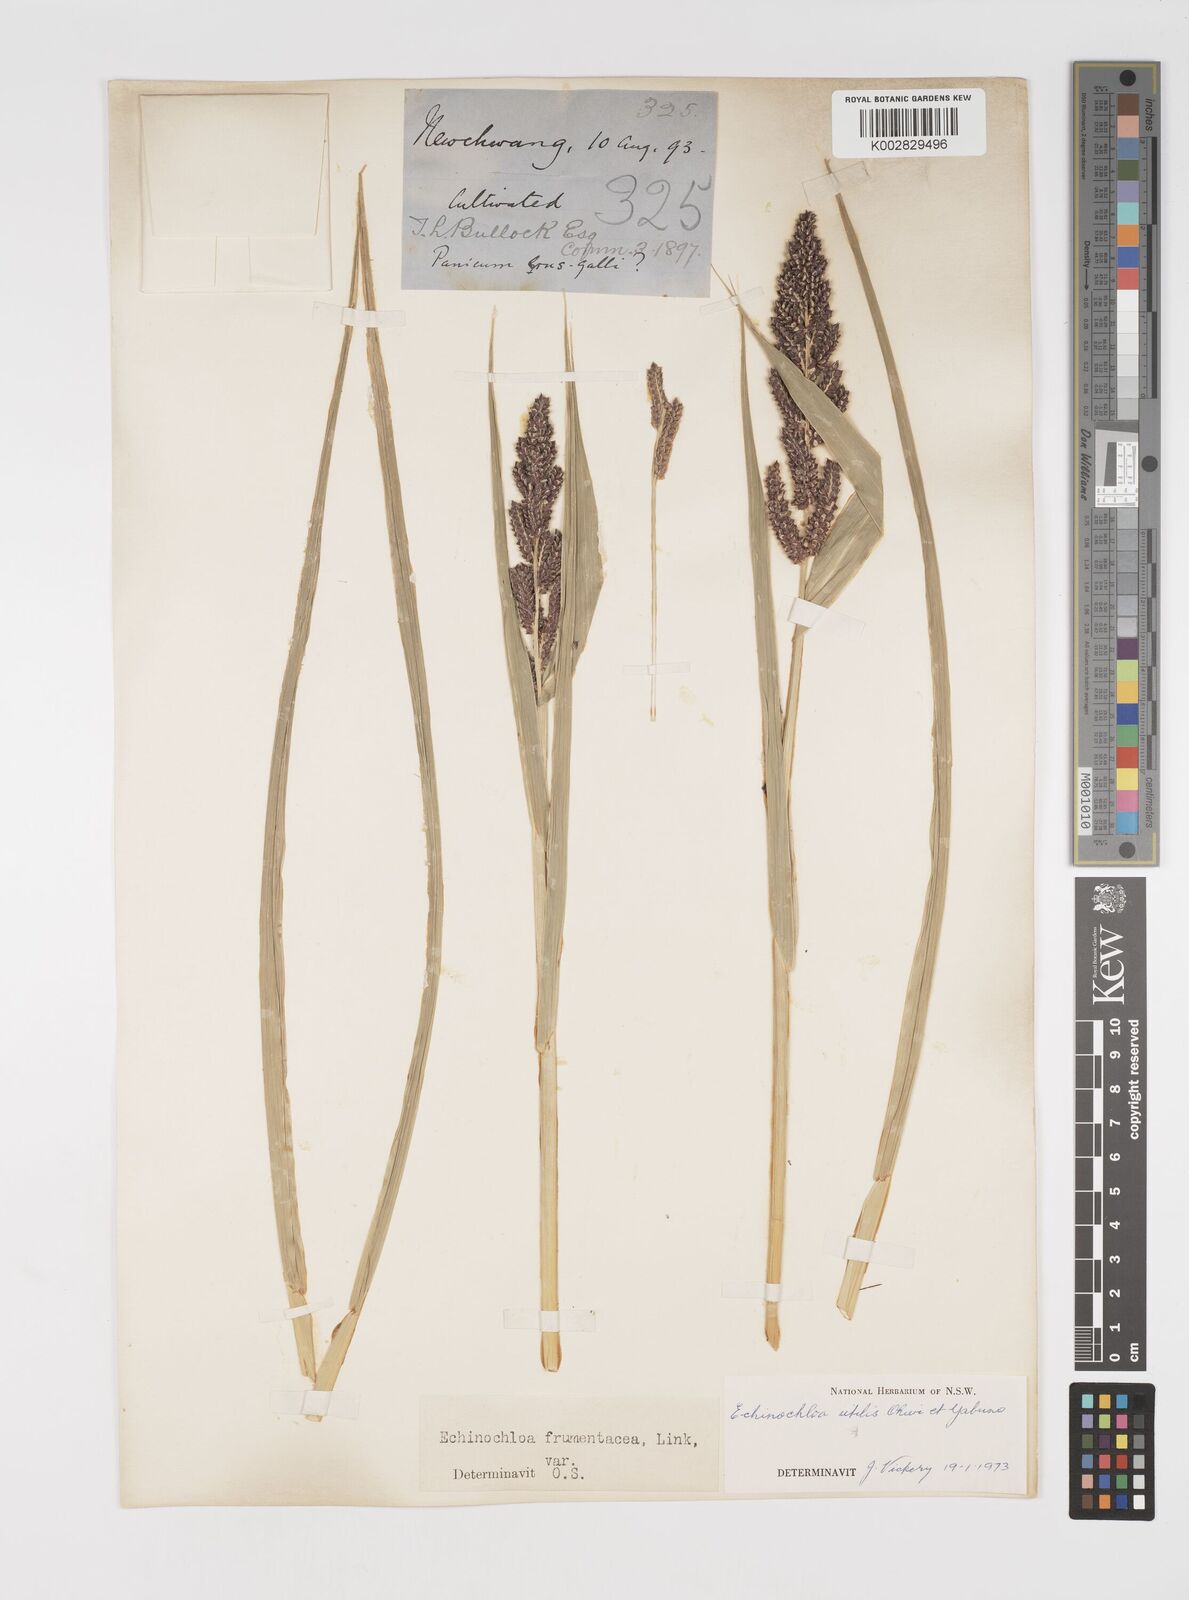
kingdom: Plantae
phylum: Tracheophyta
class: Liliopsida
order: Poales
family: Poaceae
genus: Echinochloa
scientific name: Echinochloa crus-galli
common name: Cockspur
